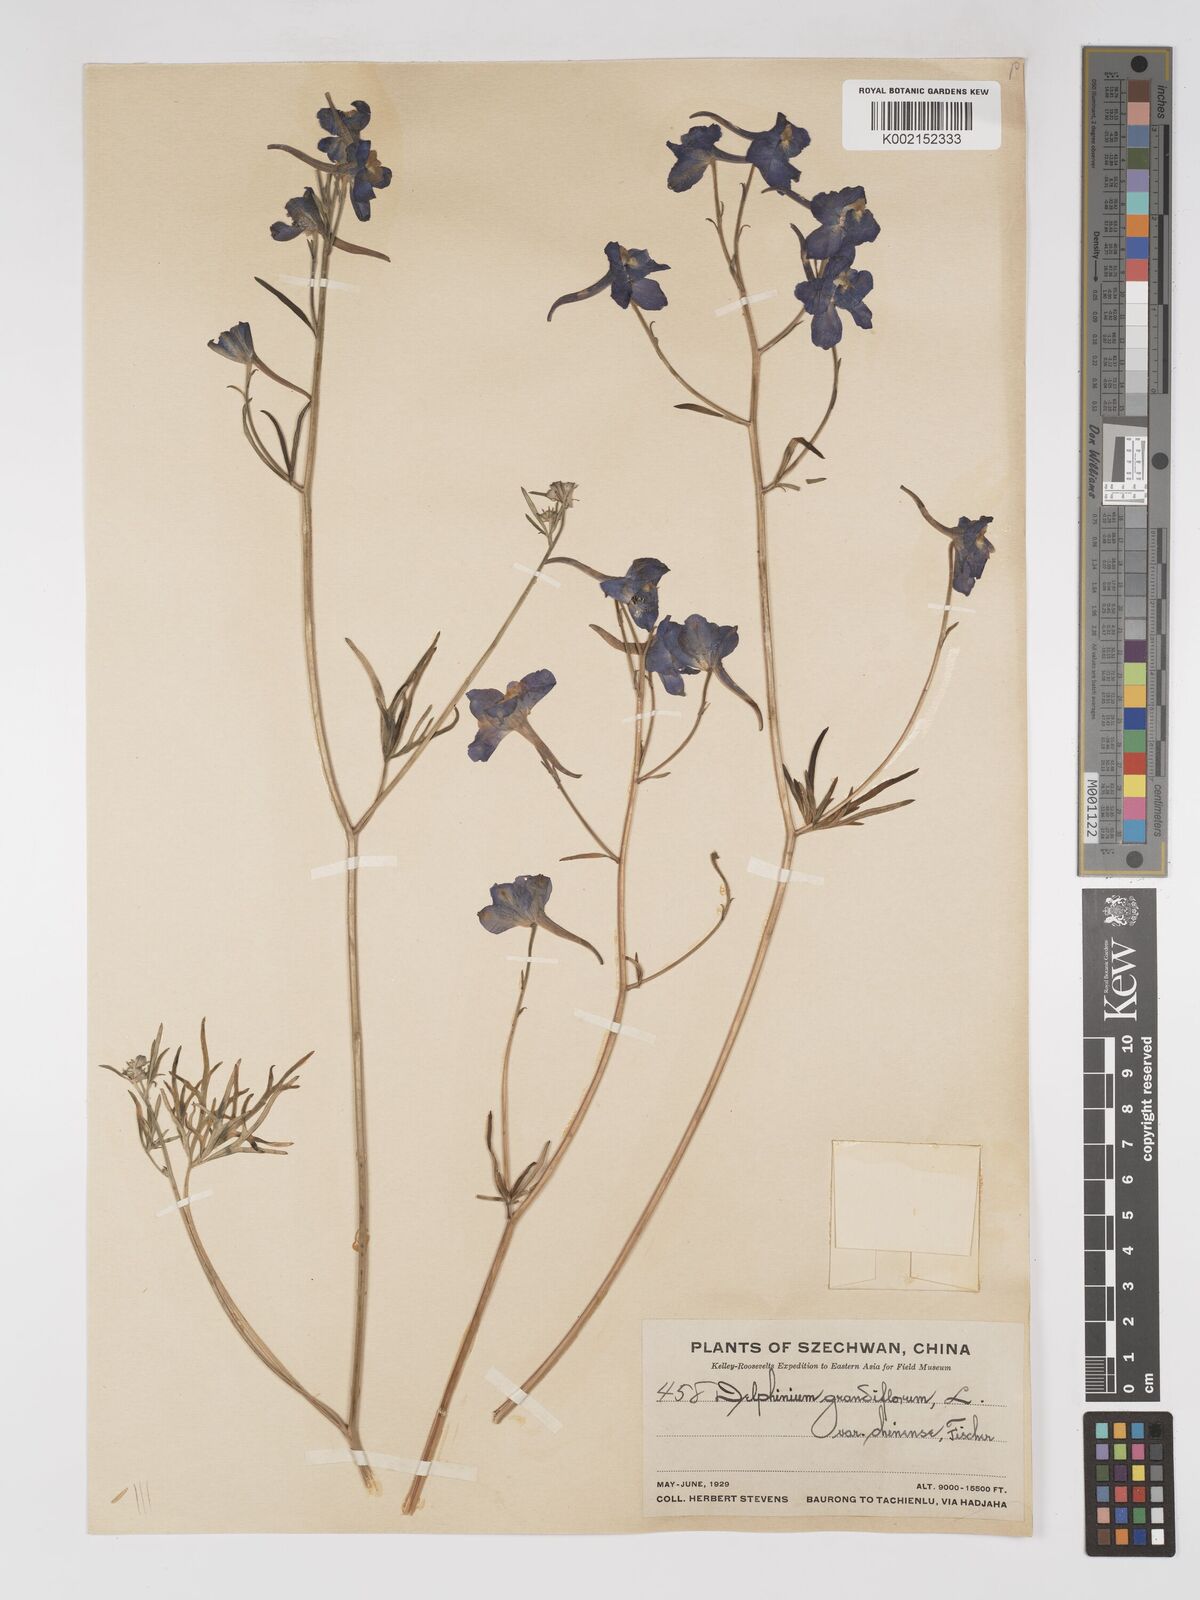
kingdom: Plantae
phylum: Tracheophyta
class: Magnoliopsida
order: Ranunculales
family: Ranunculaceae
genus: Delphinium
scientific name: Delphinium kamaonense
